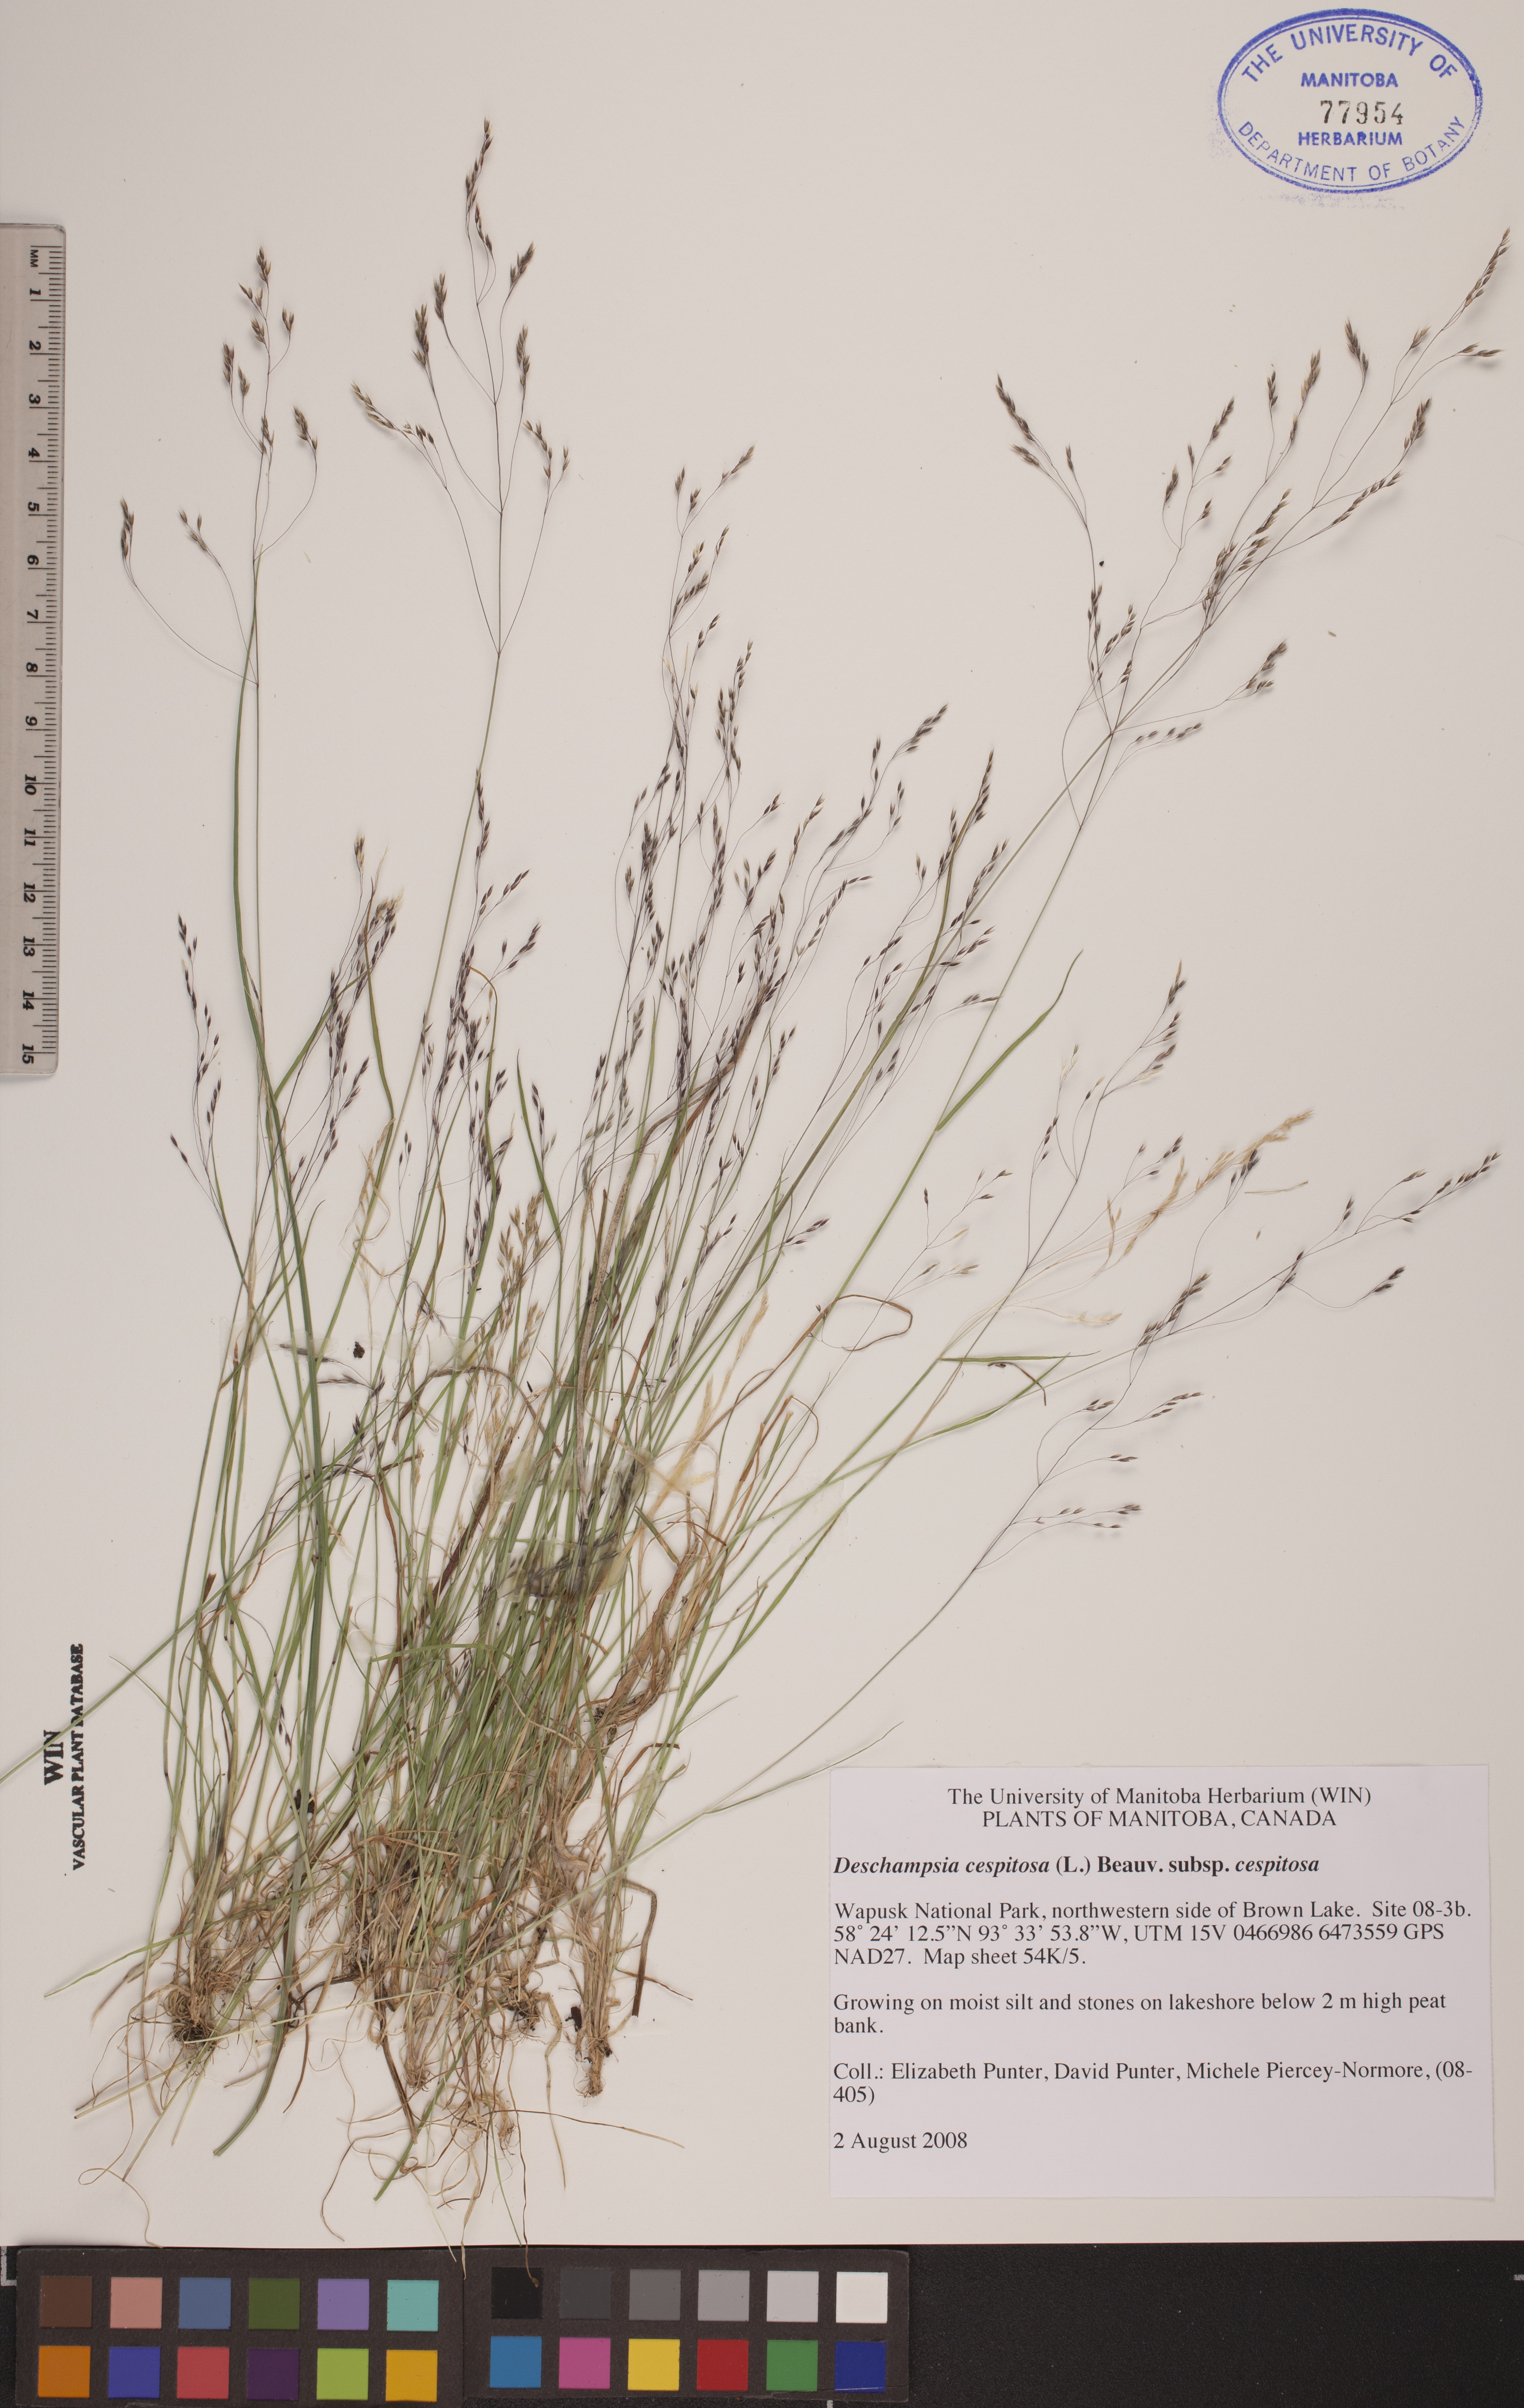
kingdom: Plantae
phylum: Tracheophyta
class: Liliopsida
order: Poales
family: Poaceae
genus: Deschampsia
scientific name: Deschampsia cespitosa
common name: Tufted hair-grass
